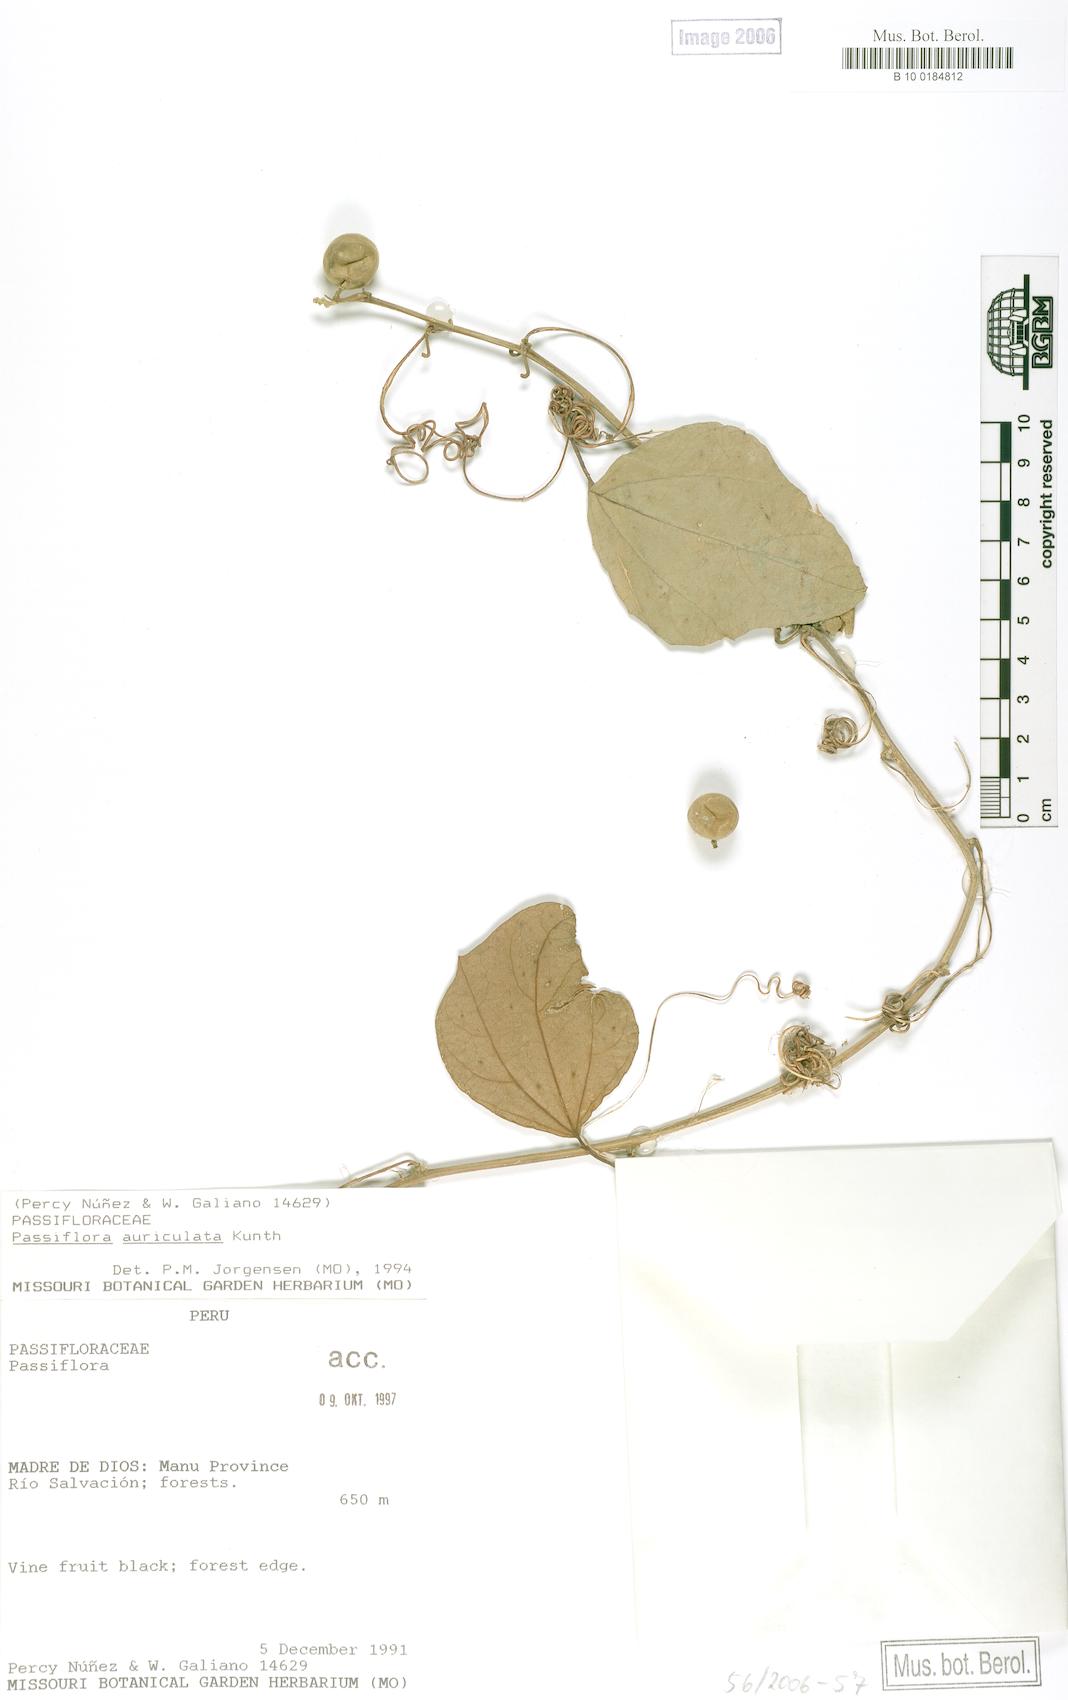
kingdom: Plantae
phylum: Tracheophyta
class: Magnoliopsida
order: Malpighiales
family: Passifloraceae
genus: Passiflora
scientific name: Passiflora auriculata
